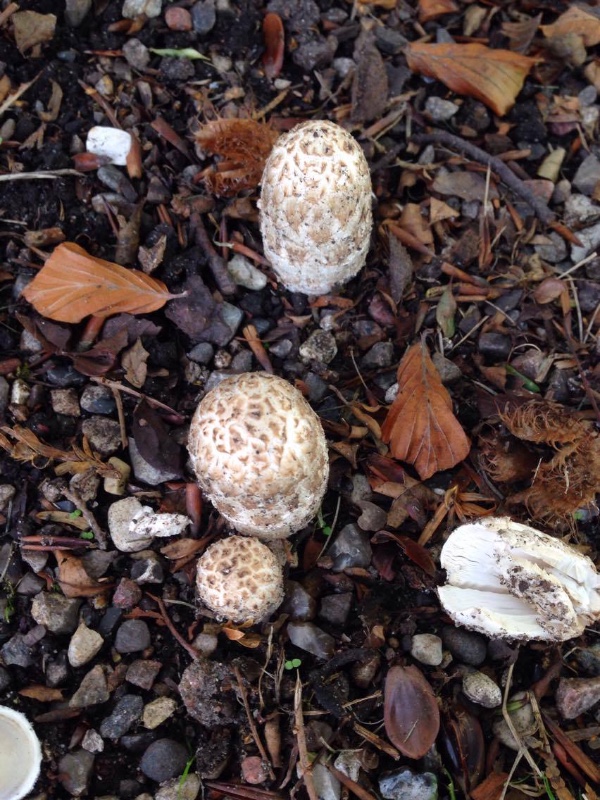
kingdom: Fungi
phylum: Basidiomycota
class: Agaricomycetes
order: Agaricales
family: Agaricaceae
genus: Coprinus
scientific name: Coprinus comatus
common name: stor parykhat
